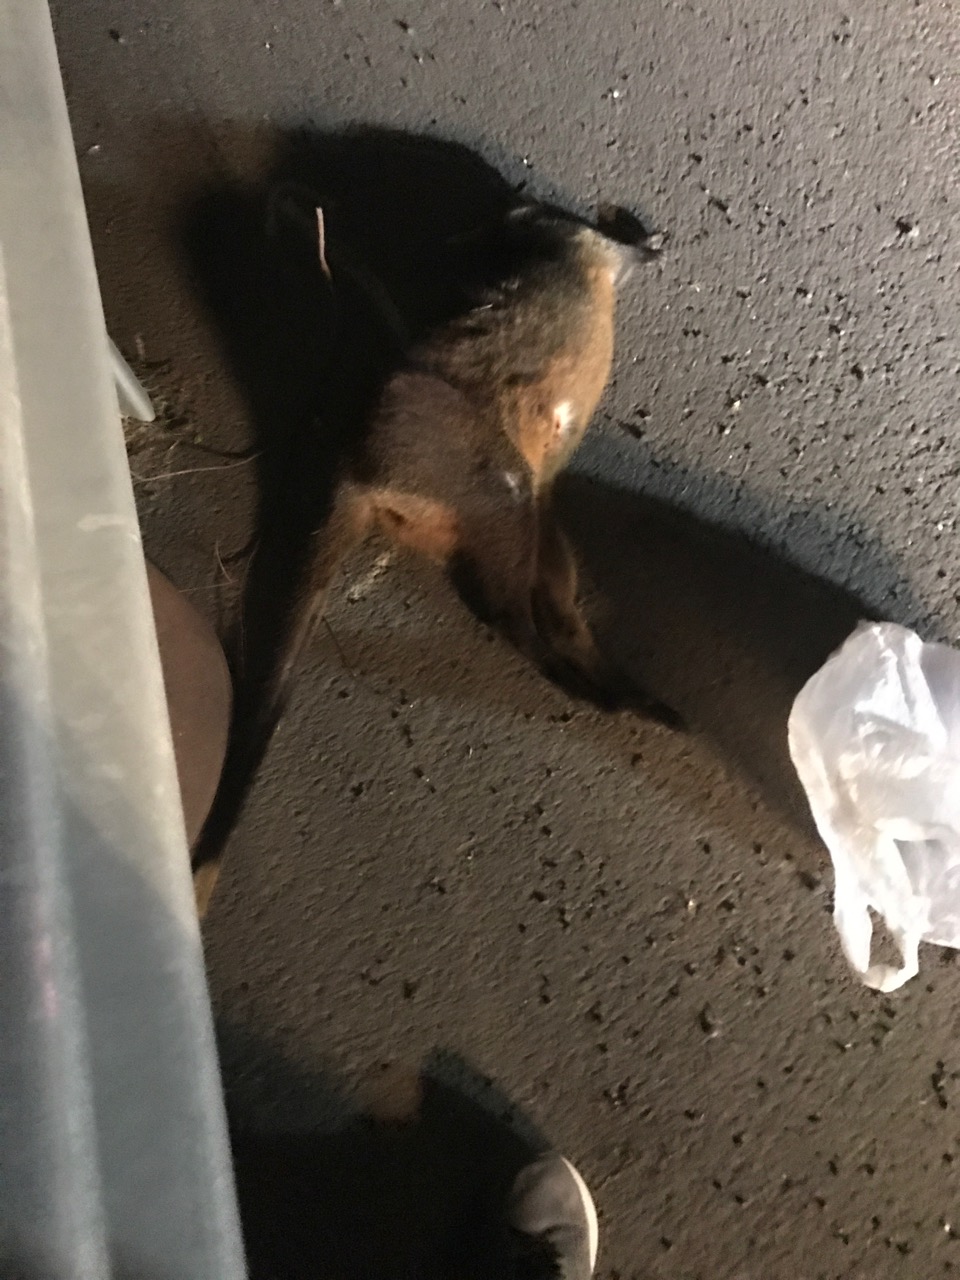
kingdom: Animalia
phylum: Chordata
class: Mammalia
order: Diprotodontia
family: Macropodidae
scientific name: Macropodidae
